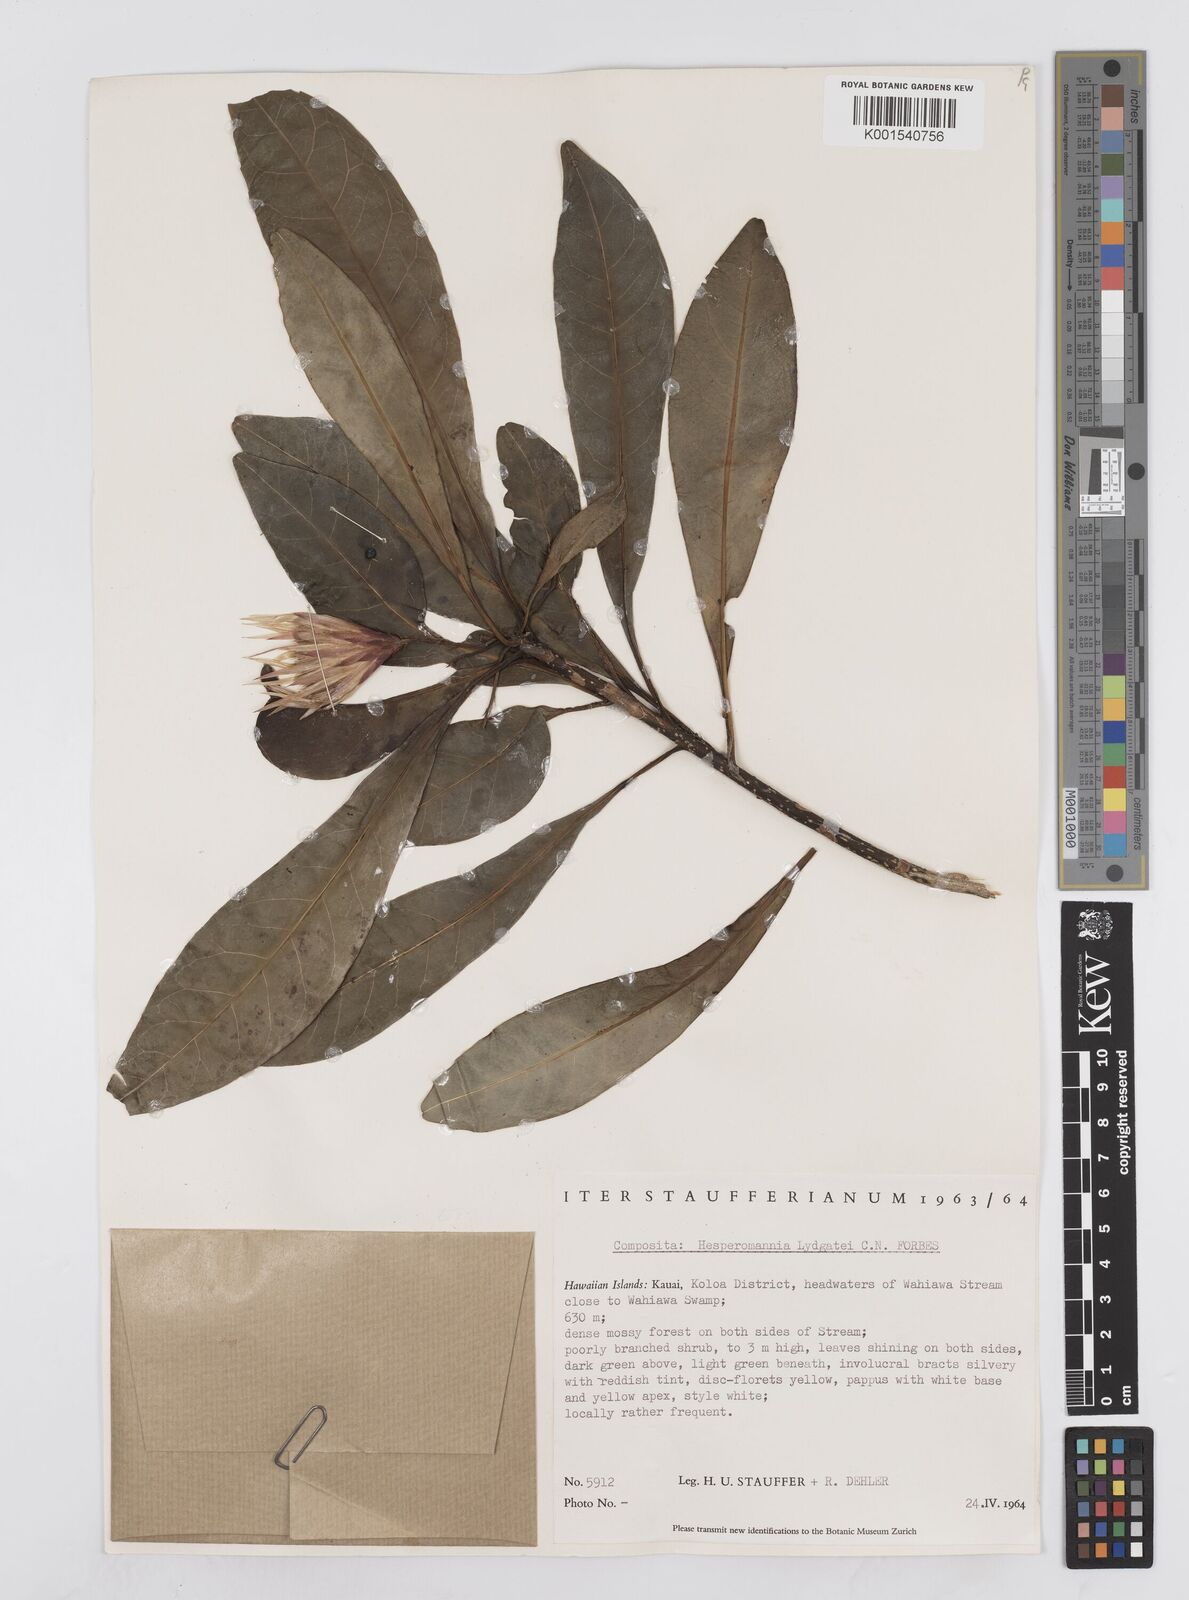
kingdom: Plantae
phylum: Tracheophyta
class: Magnoliopsida
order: Asterales
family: Asteraceae
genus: Hesperomannia
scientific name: Hesperomannia lydgatei
